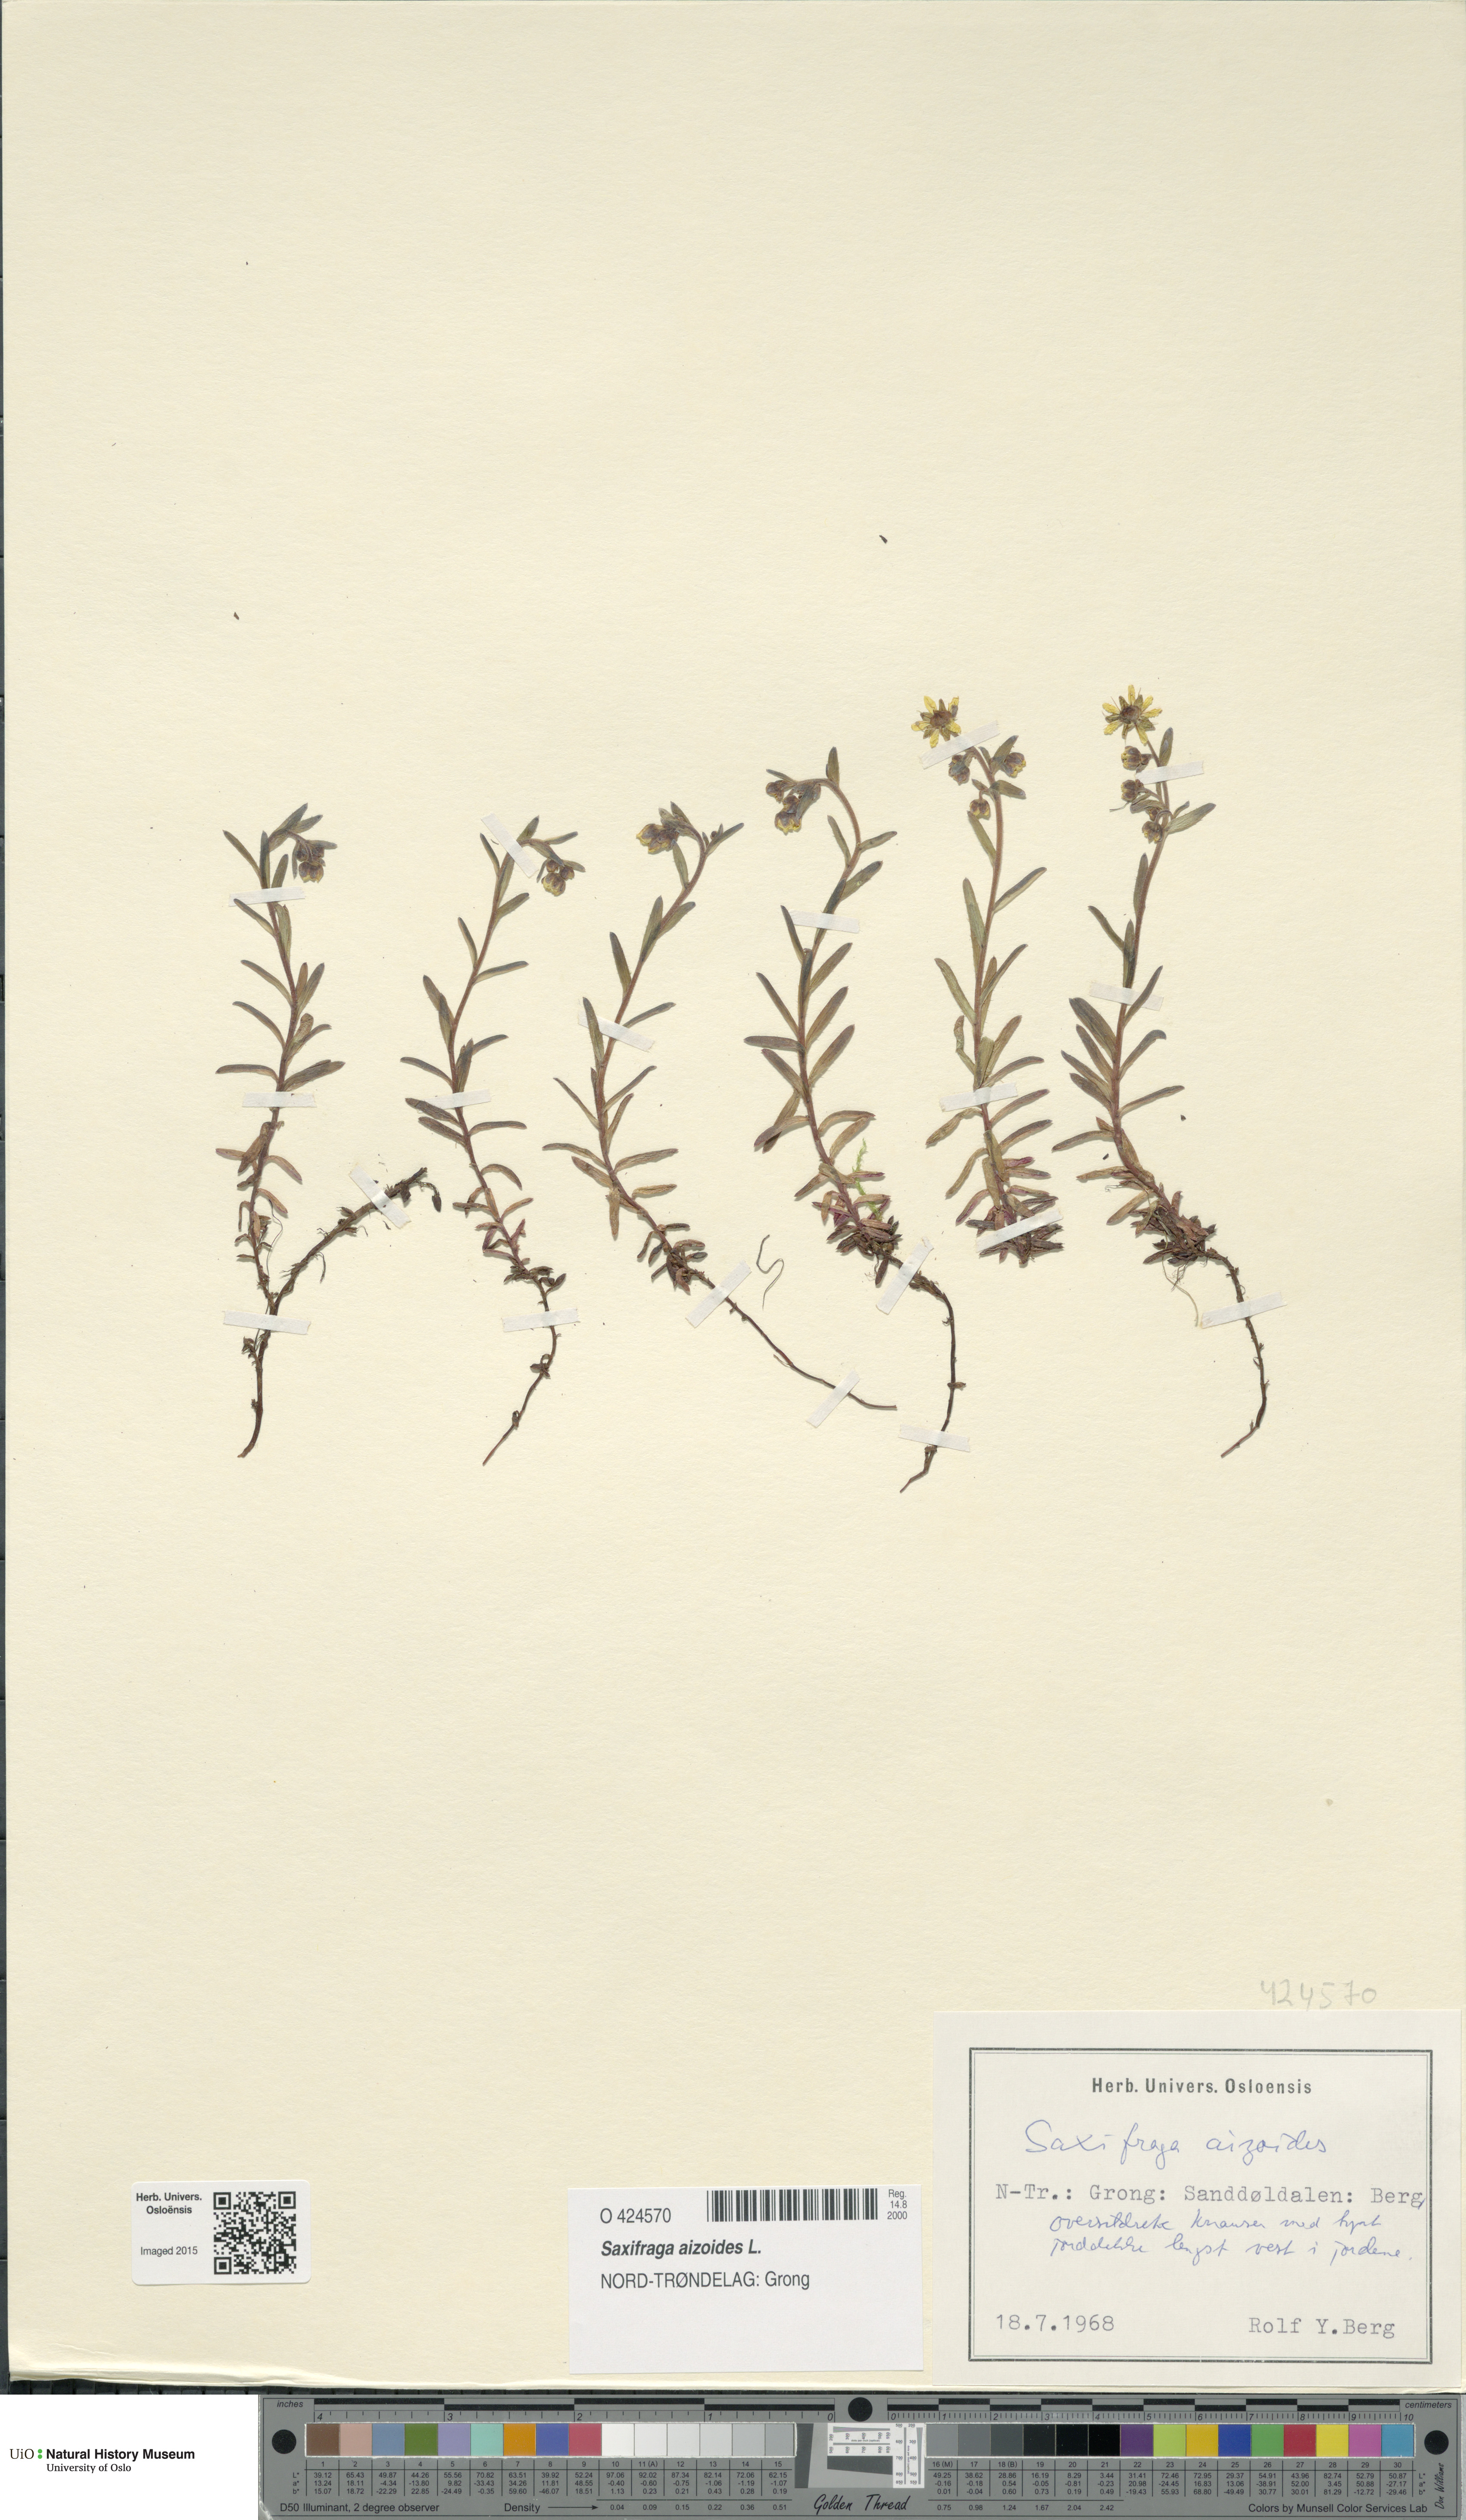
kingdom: Plantae
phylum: Tracheophyta
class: Magnoliopsida
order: Saxifragales
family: Saxifragaceae
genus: Saxifraga
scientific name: Saxifraga aizoides
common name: Yellow mountain saxifrage
